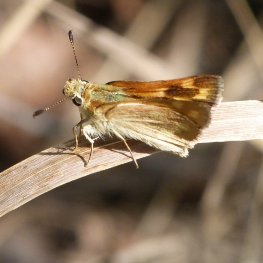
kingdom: Animalia
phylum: Arthropoda
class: Insecta
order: Lepidoptera
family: Hesperiidae
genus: Ochlodes
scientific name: Ochlodes sylvanoides
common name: Woodland Skipper
